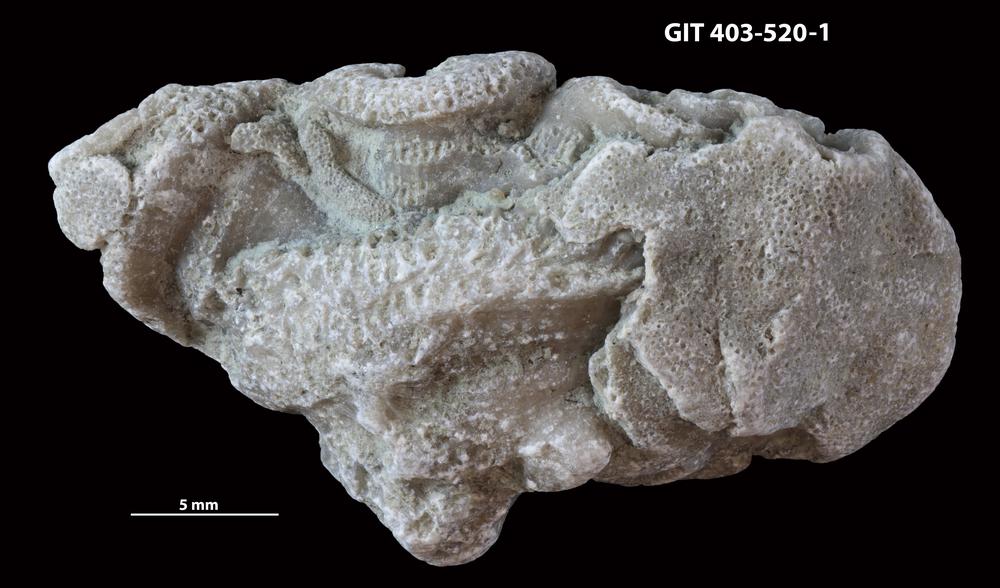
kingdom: Animalia
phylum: Bryozoa
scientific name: Bryozoa
